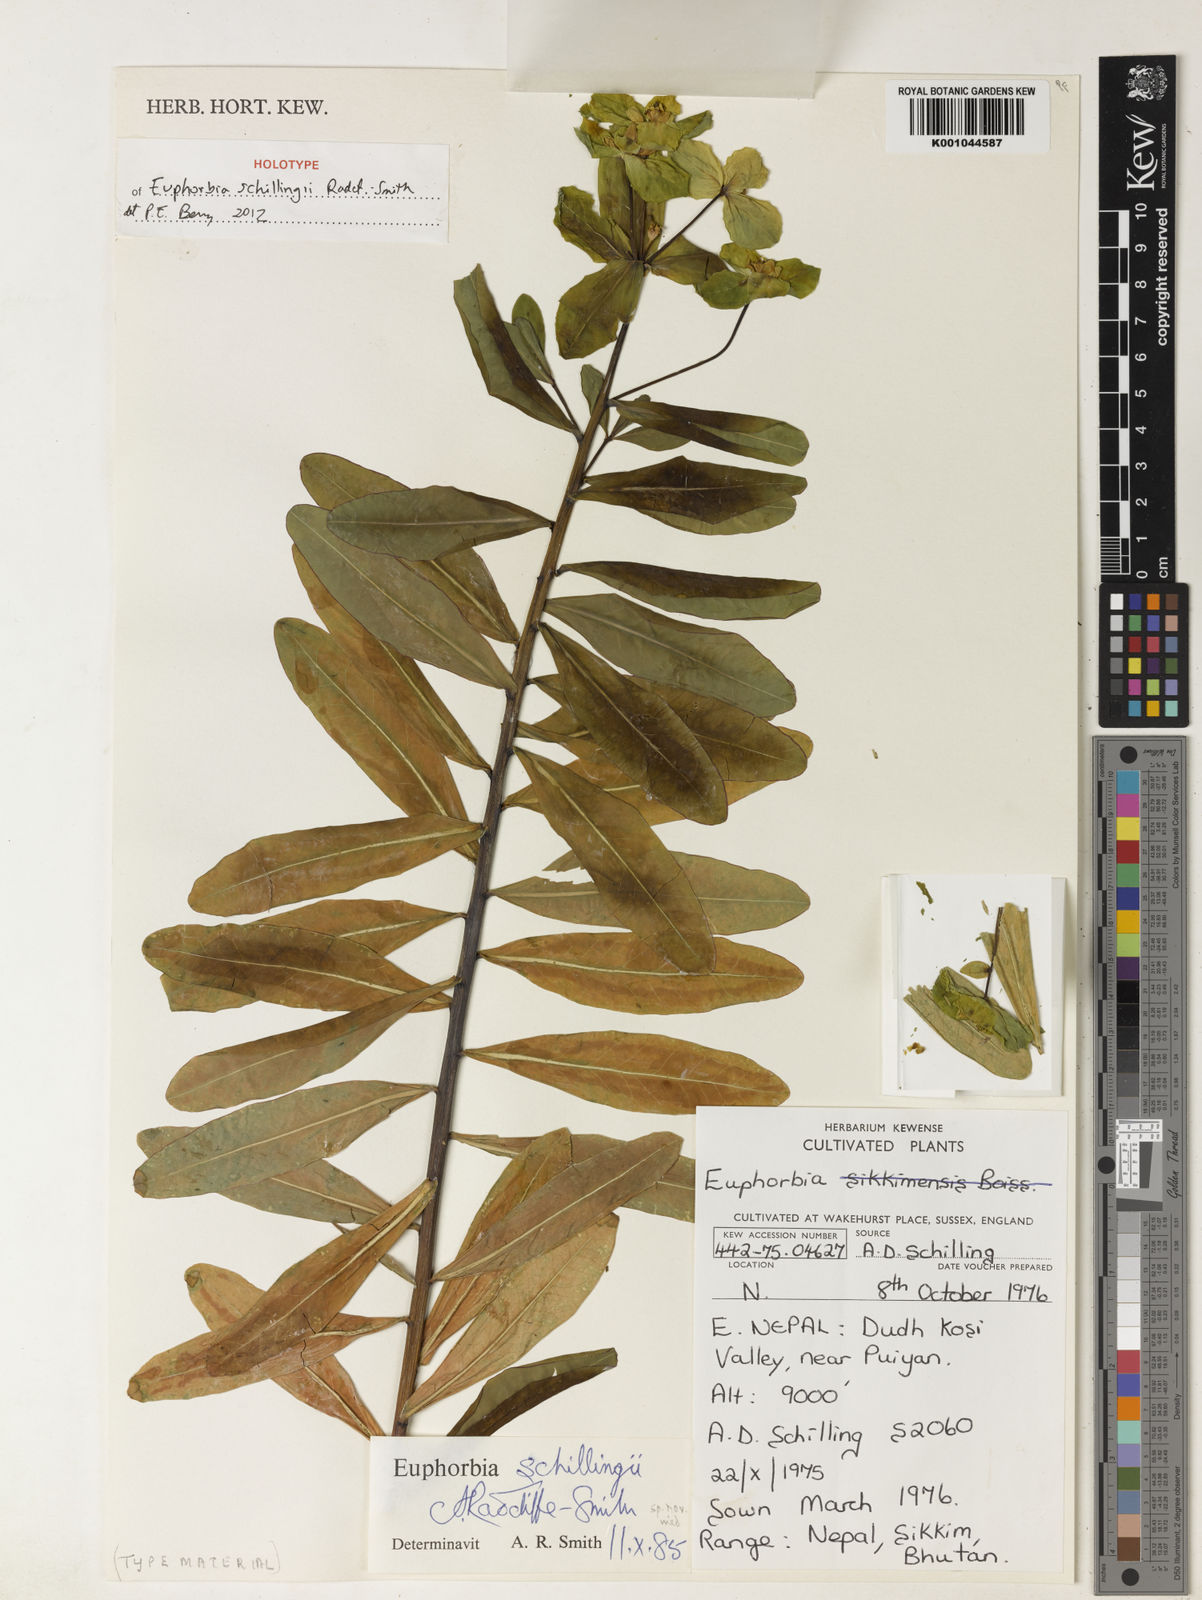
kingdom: Plantae
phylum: Tracheophyta
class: Magnoliopsida
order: Malpighiales
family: Euphorbiaceae
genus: Euphorbia
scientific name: Euphorbia pseudosikkimensis
